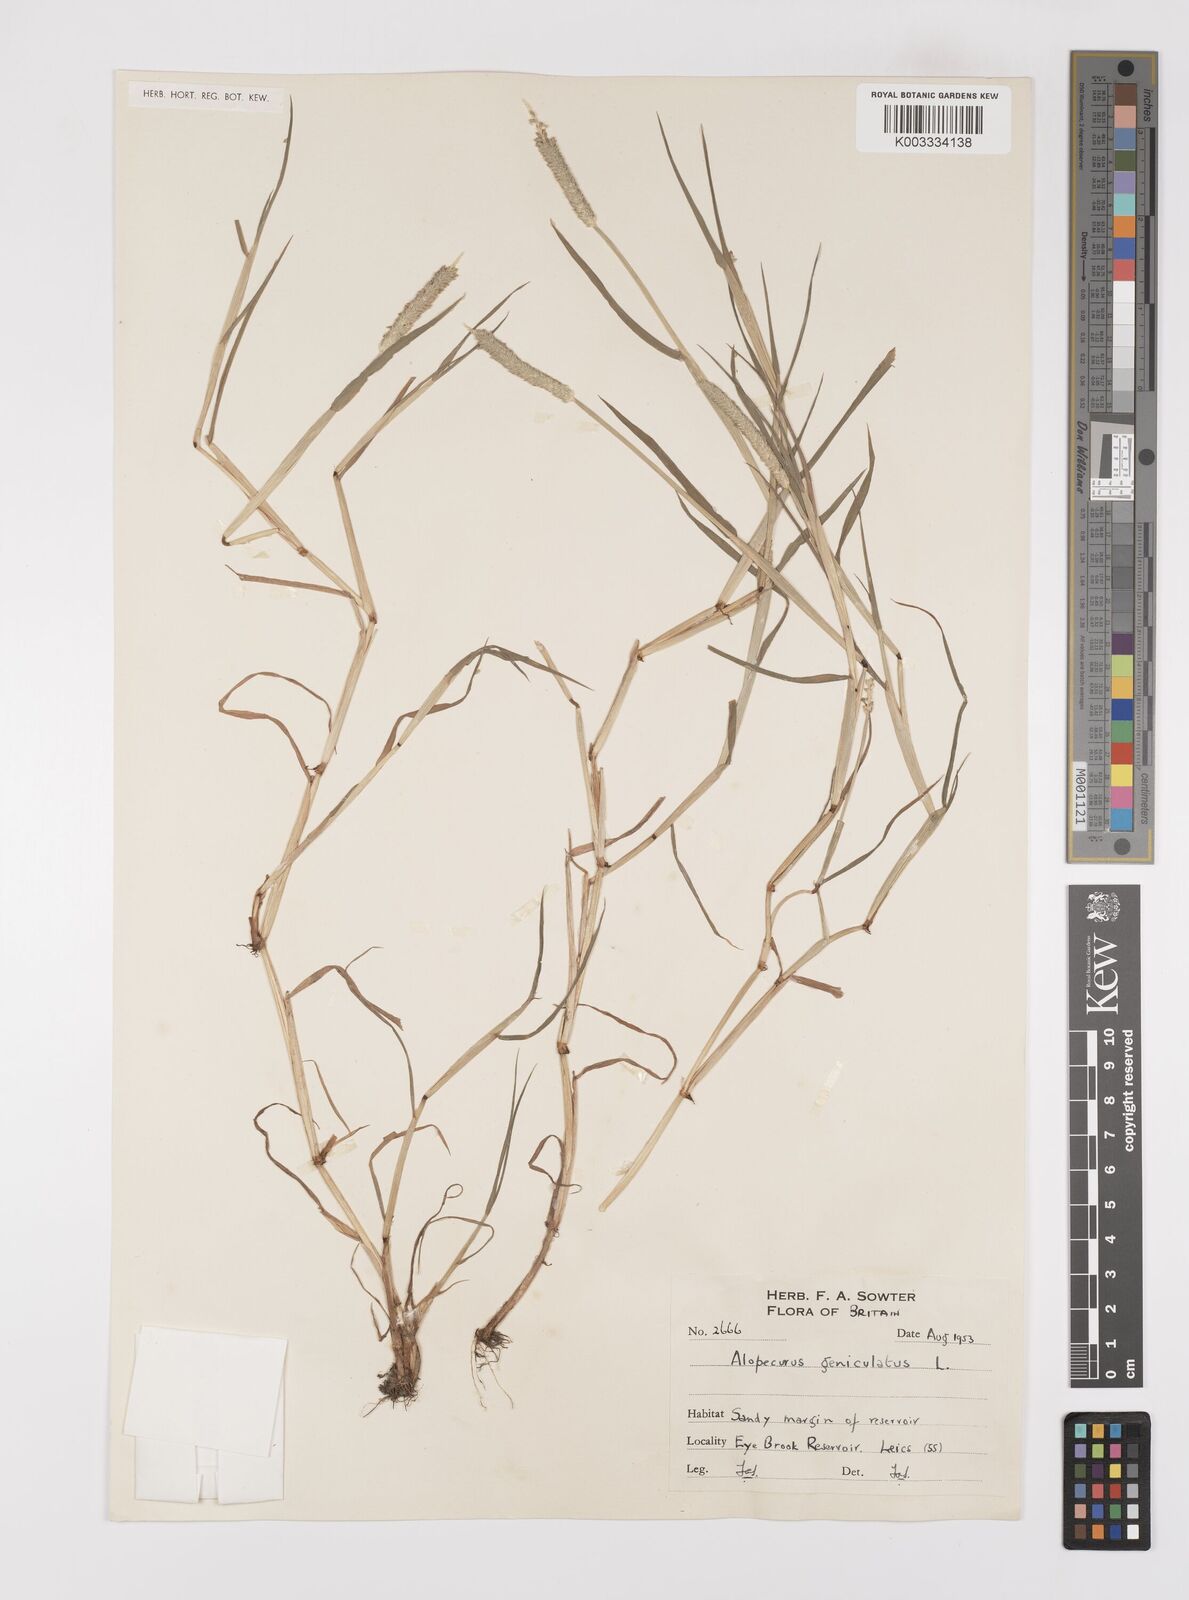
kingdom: Plantae
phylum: Tracheophyta
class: Liliopsida
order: Poales
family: Poaceae
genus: Alopecurus
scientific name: Alopecurus geniculatus
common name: Water foxtail
